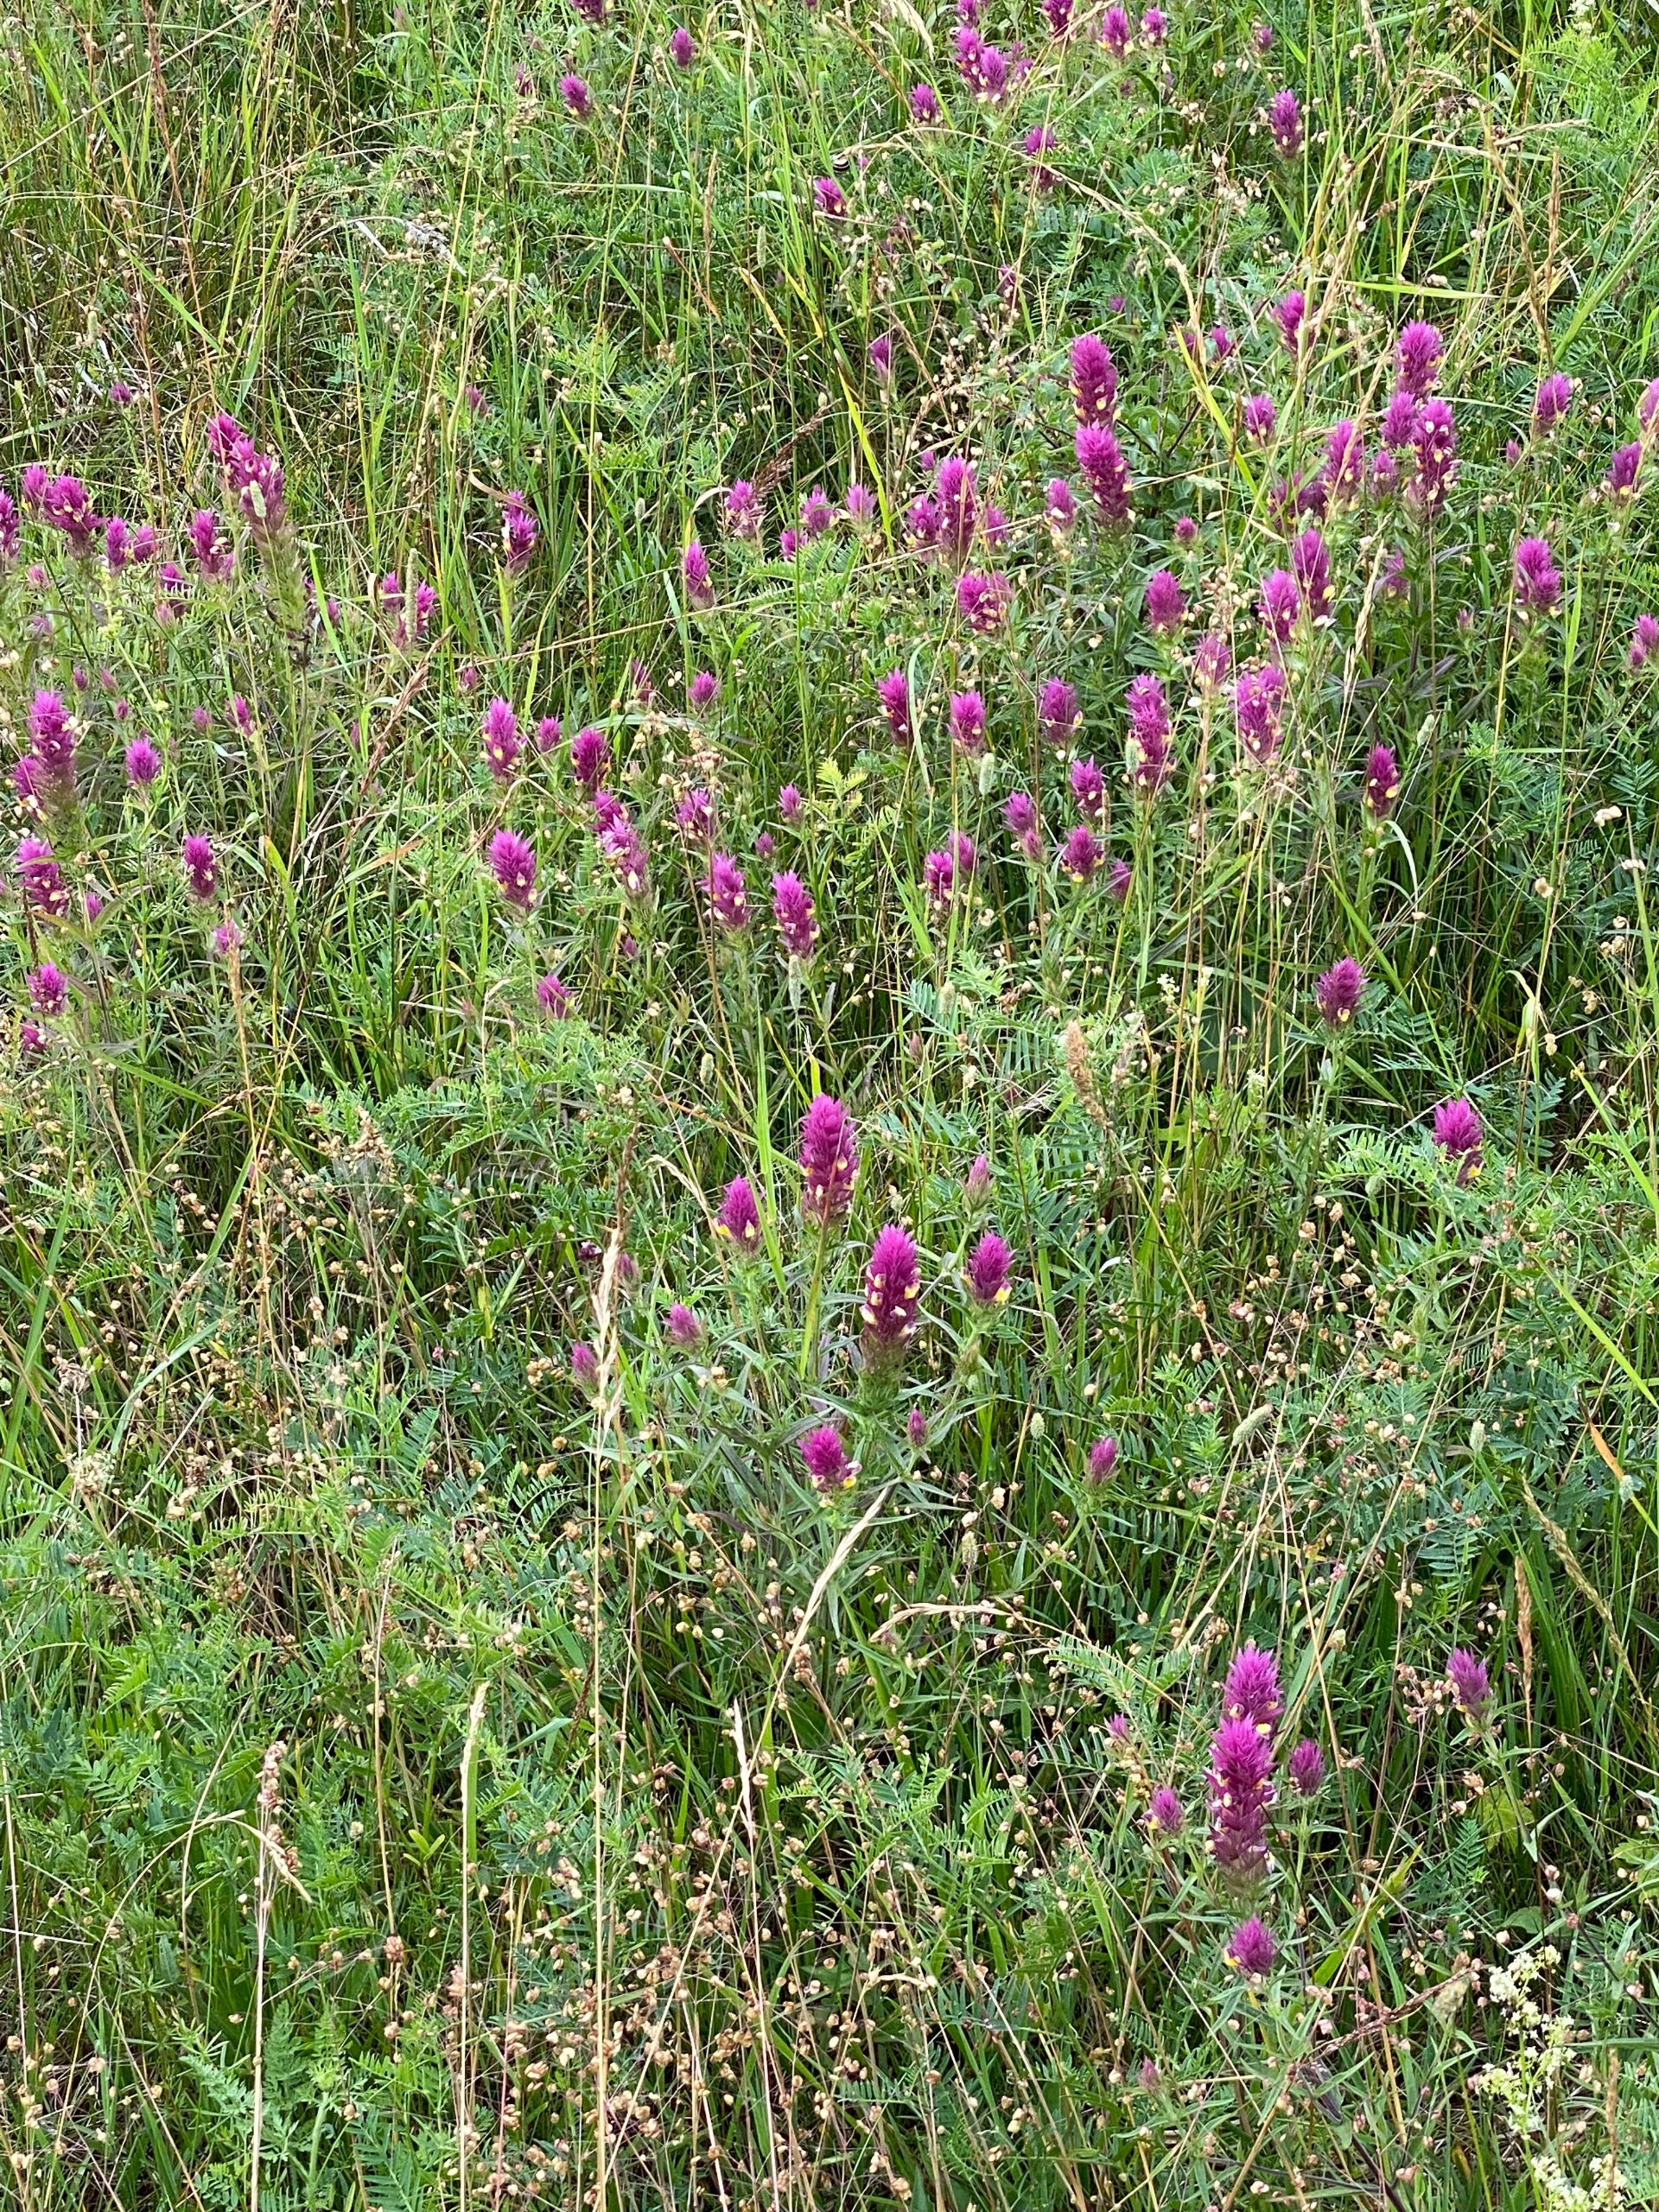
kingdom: Plantae
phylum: Tracheophyta
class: Magnoliopsida
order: Lamiales
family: Orobanchaceae
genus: Melampyrum
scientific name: Melampyrum arvense
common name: Ager-kohvede
